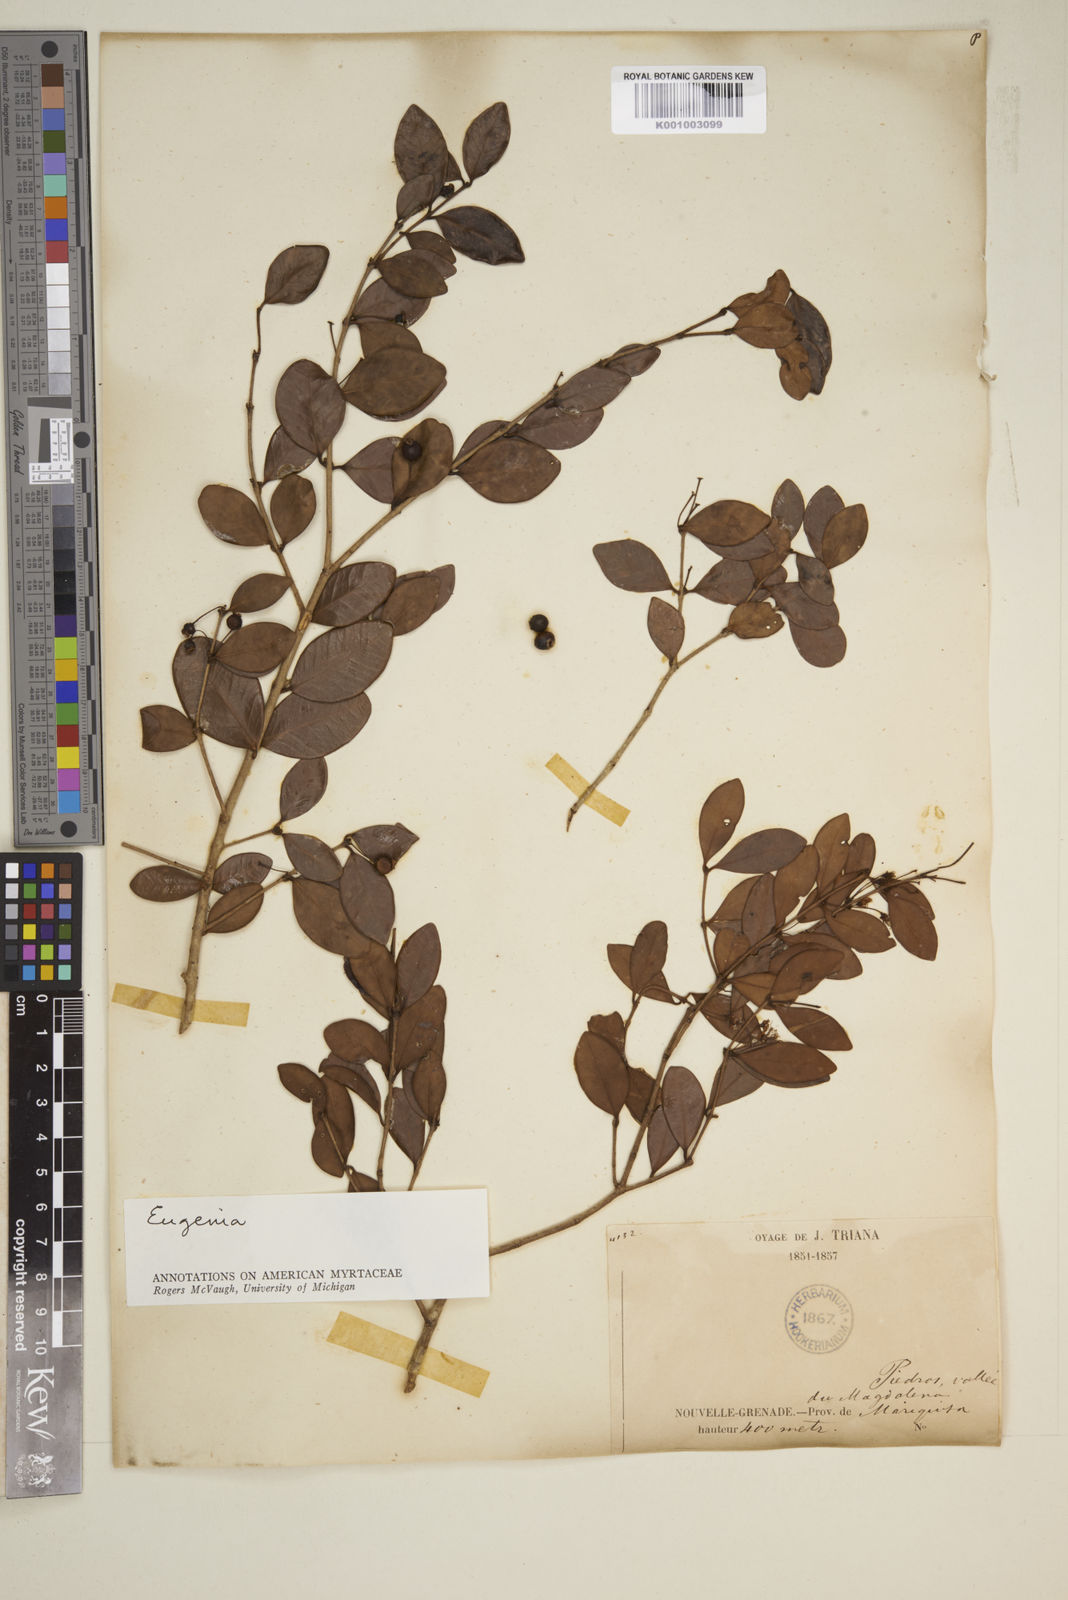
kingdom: Plantae
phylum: Tracheophyta
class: Magnoliopsida
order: Myrtales
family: Myrtaceae
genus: Eugenia
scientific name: Eugenia
